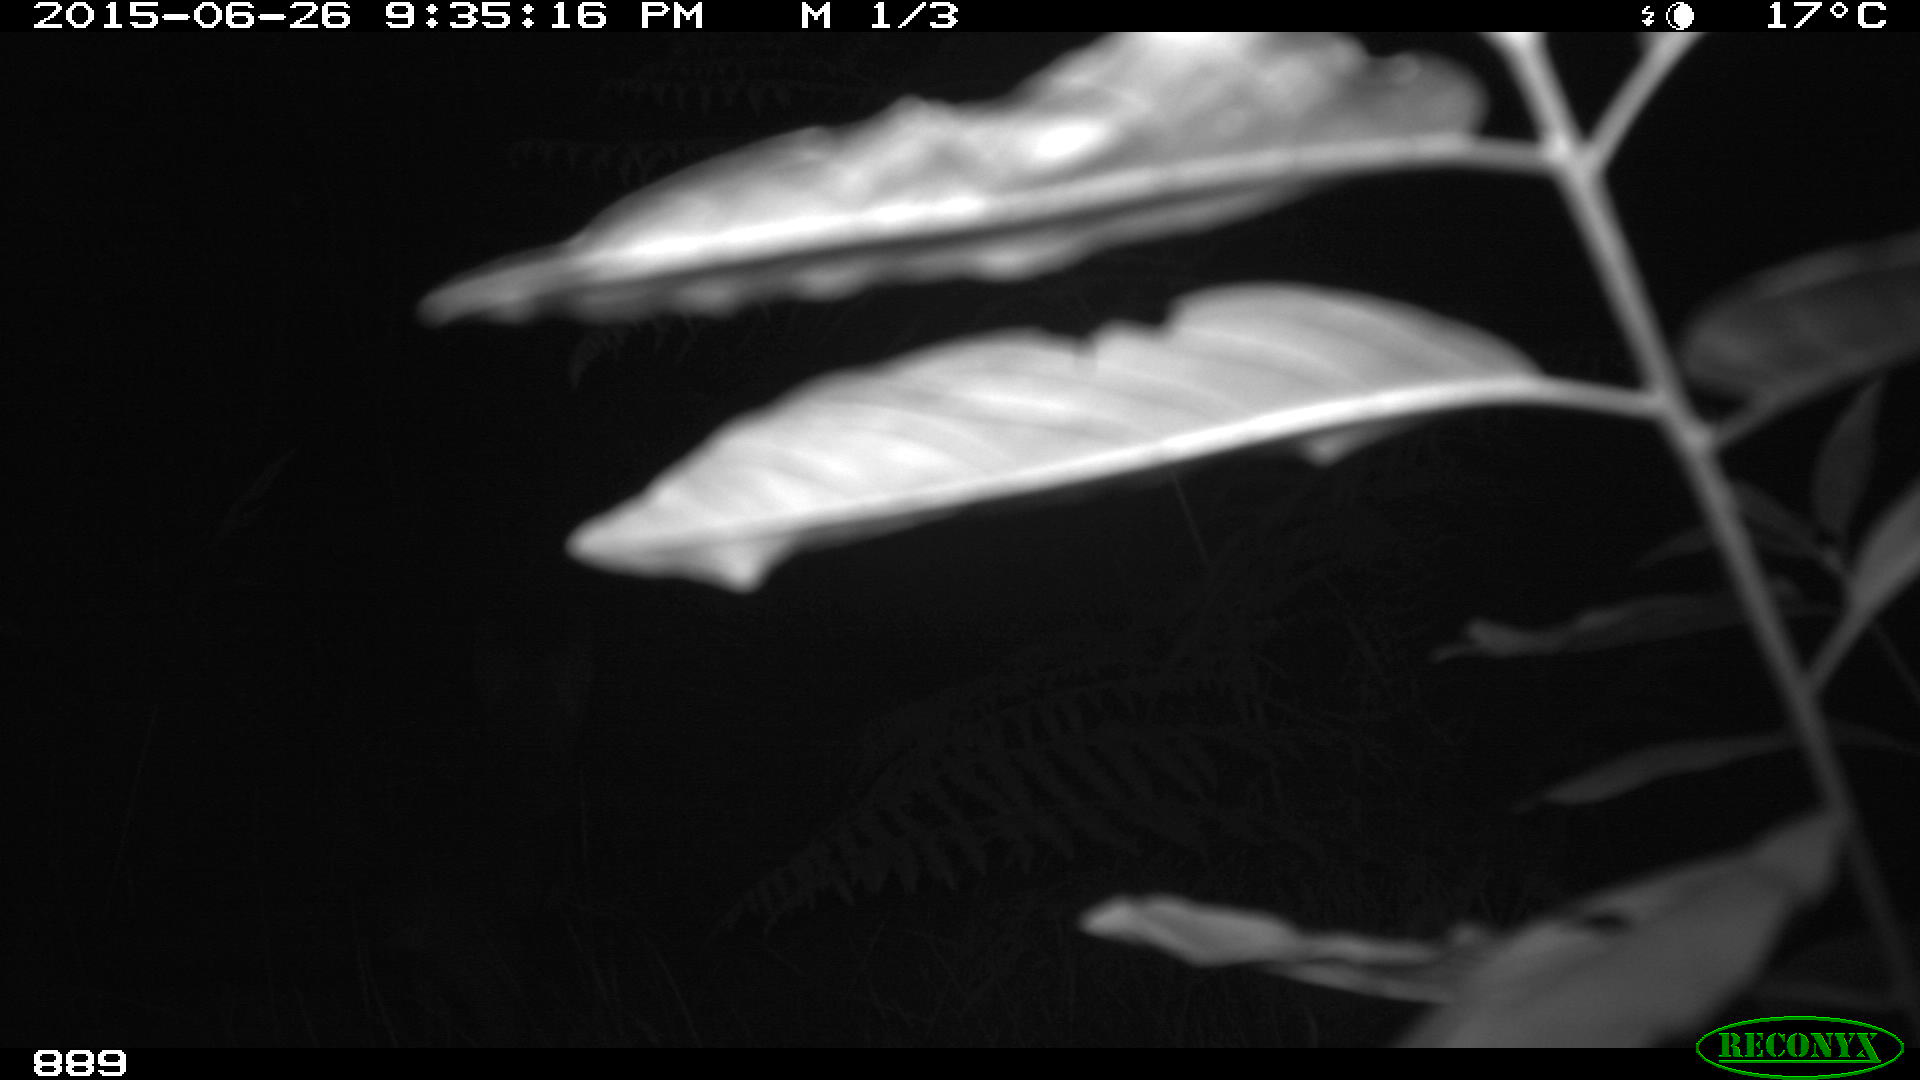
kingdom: Animalia
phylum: Chordata
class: Mammalia
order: Carnivora
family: Canidae
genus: Vulpes
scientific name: Vulpes vulpes
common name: Red fox
